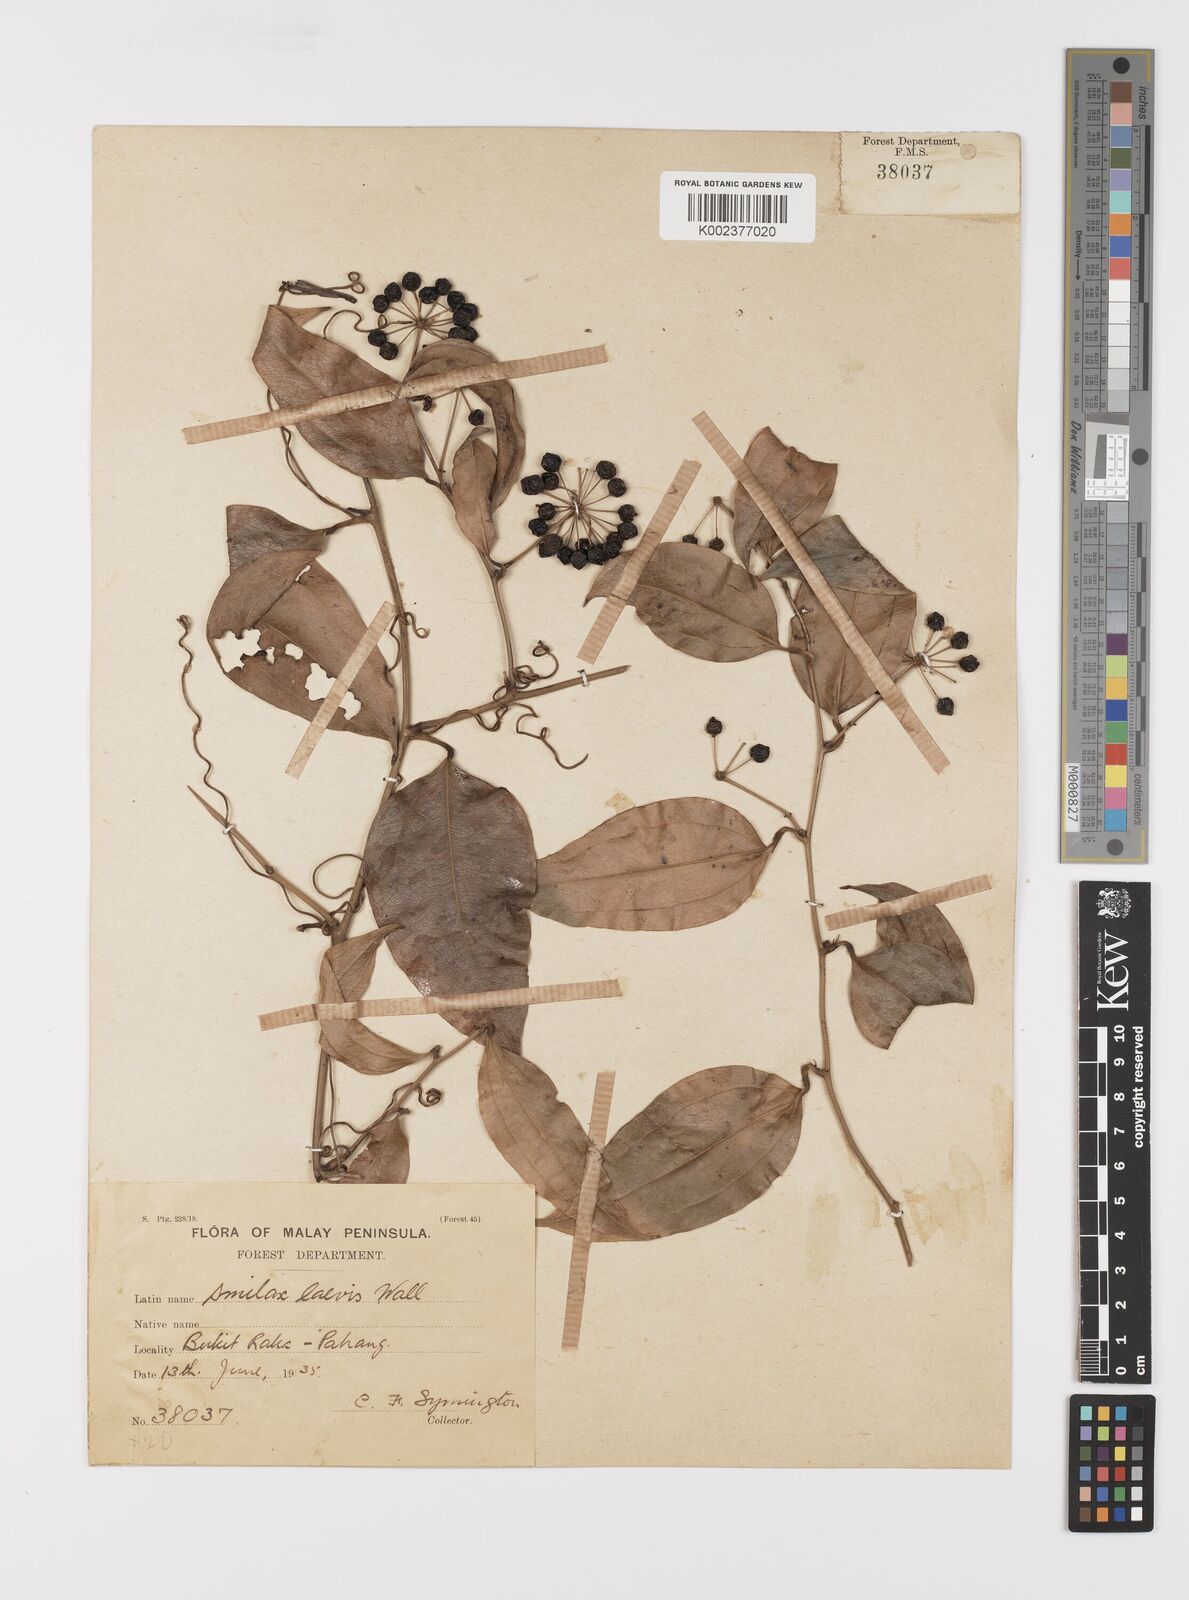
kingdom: Plantae
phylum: Tracheophyta
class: Liliopsida
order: Liliales
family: Smilacaceae
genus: Smilax
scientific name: Smilax laevis
